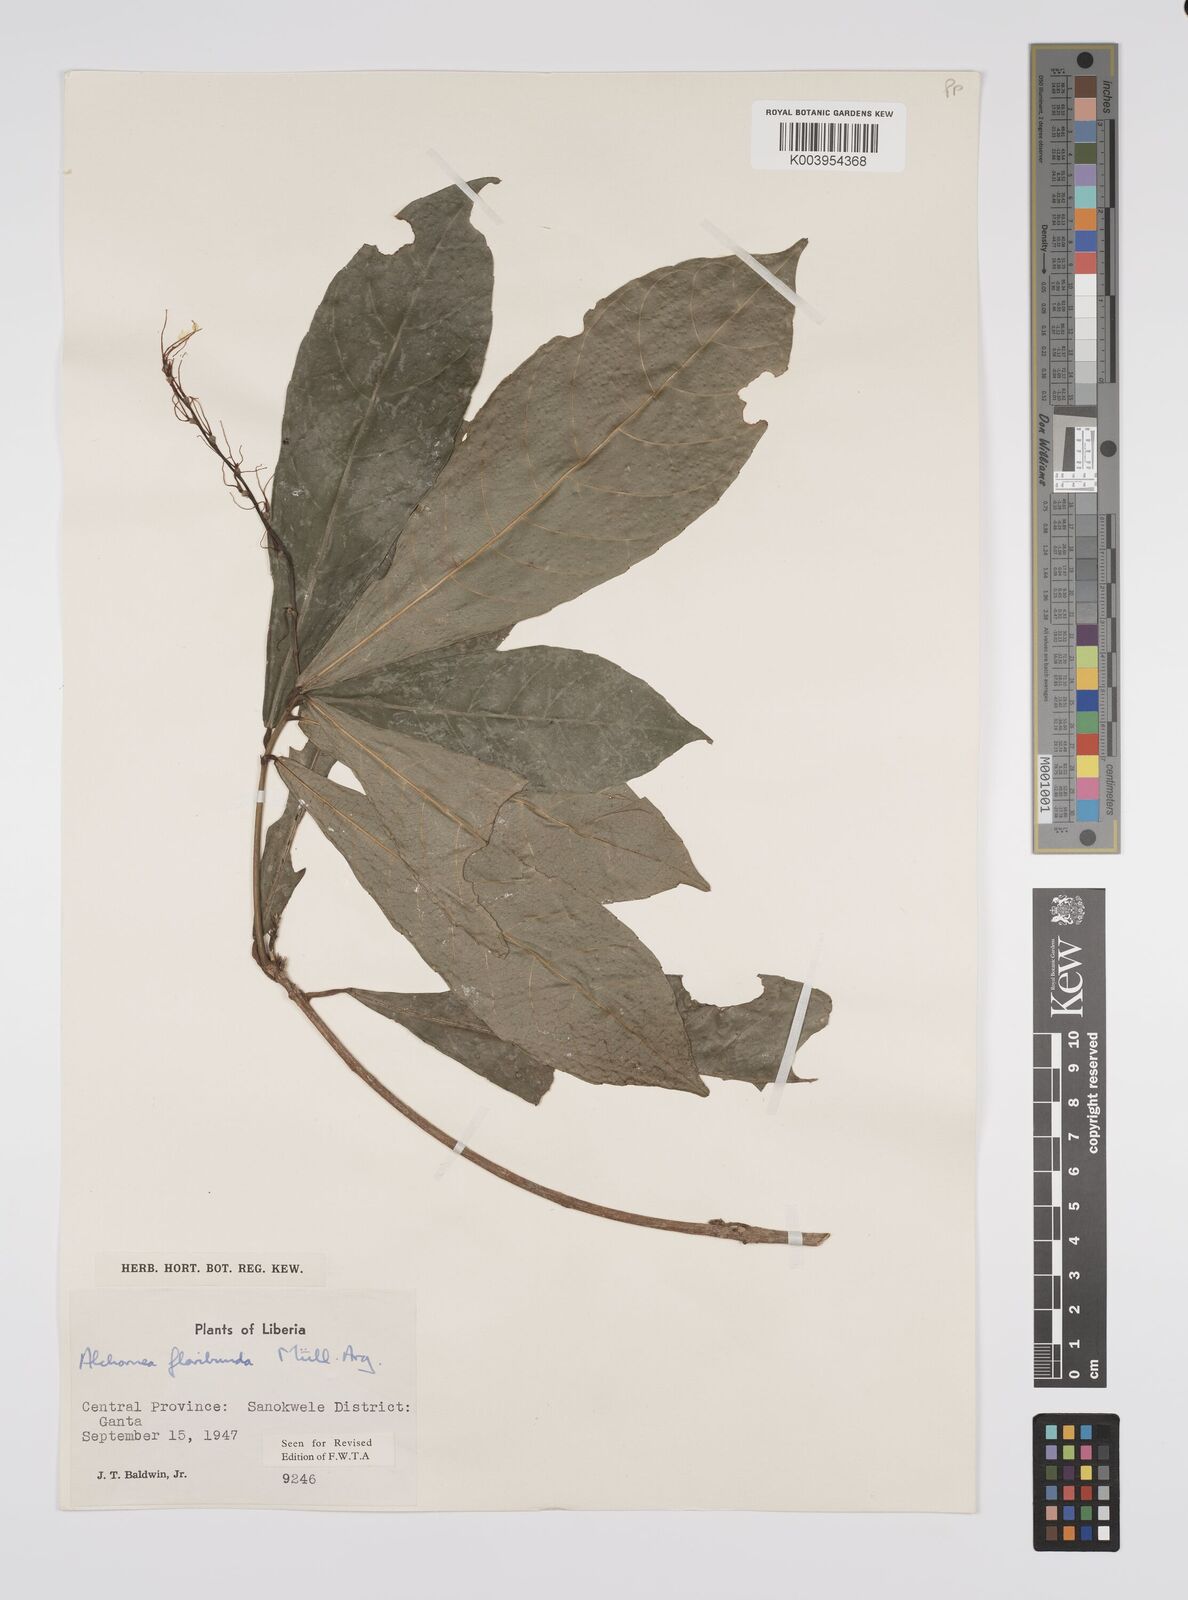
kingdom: Plantae
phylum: Tracheophyta
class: Magnoliopsida
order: Malpighiales
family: Euphorbiaceae
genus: Alchornea
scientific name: Alchornea floribunda
